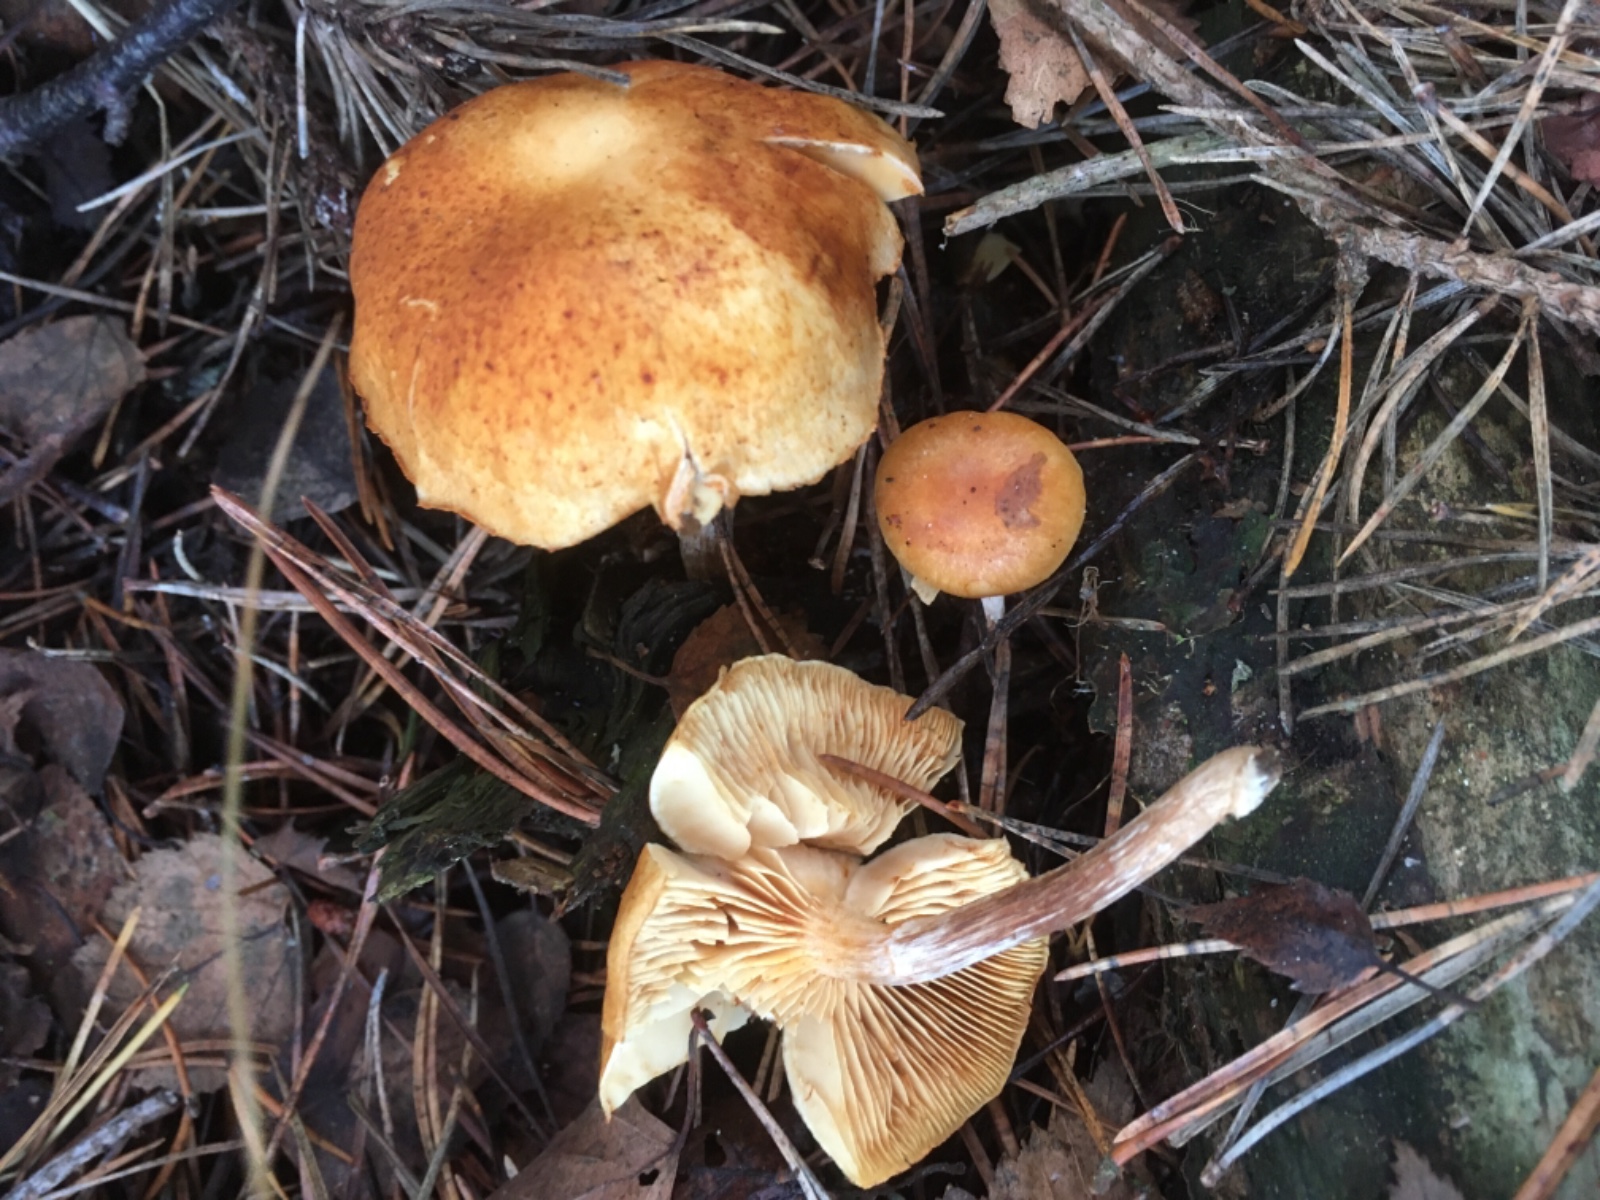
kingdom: Fungi
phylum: Basidiomycota
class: Agaricomycetes
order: Agaricales
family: Hymenogastraceae
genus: Gymnopilus
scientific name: Gymnopilus penetrans
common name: plettet flammehat
